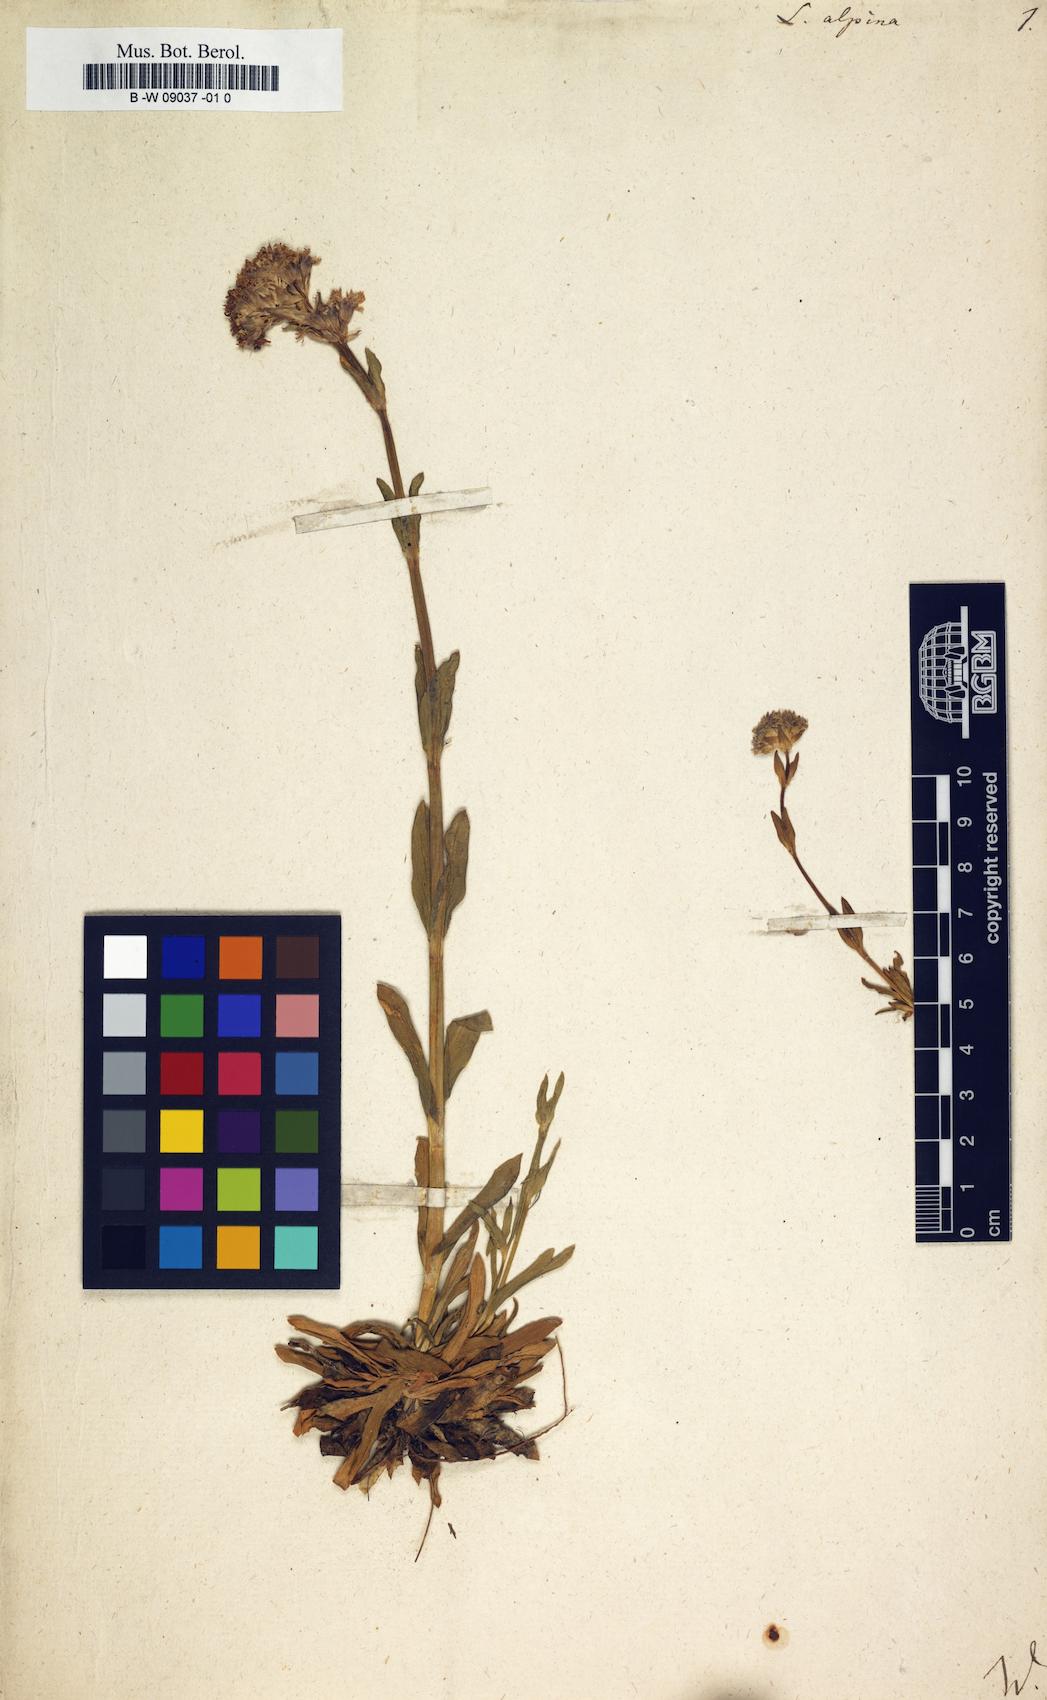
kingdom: Plantae
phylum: Tracheophyta
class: Magnoliopsida
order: Caryophyllales
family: Caryophyllaceae
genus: Viscaria
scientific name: Viscaria alpina
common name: Alpine campion
